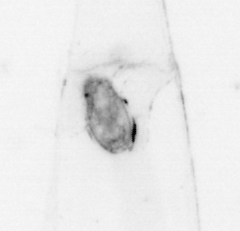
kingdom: Animalia
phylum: Chaetognatha
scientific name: Chaetognatha
